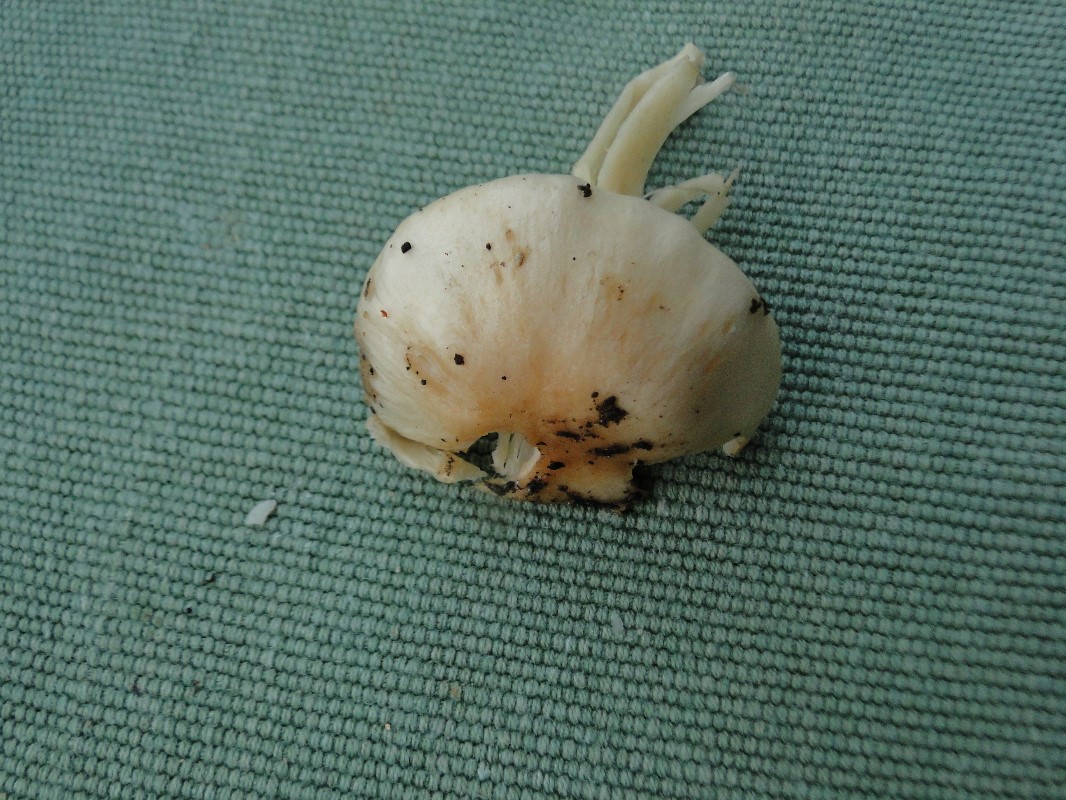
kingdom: Fungi
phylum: Basidiomycota
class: Agaricomycetes
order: Agaricales
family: Hygrophoraceae
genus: Hygrophorus
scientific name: Hygrophorus unicolor
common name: orangeøjet sneglehat
